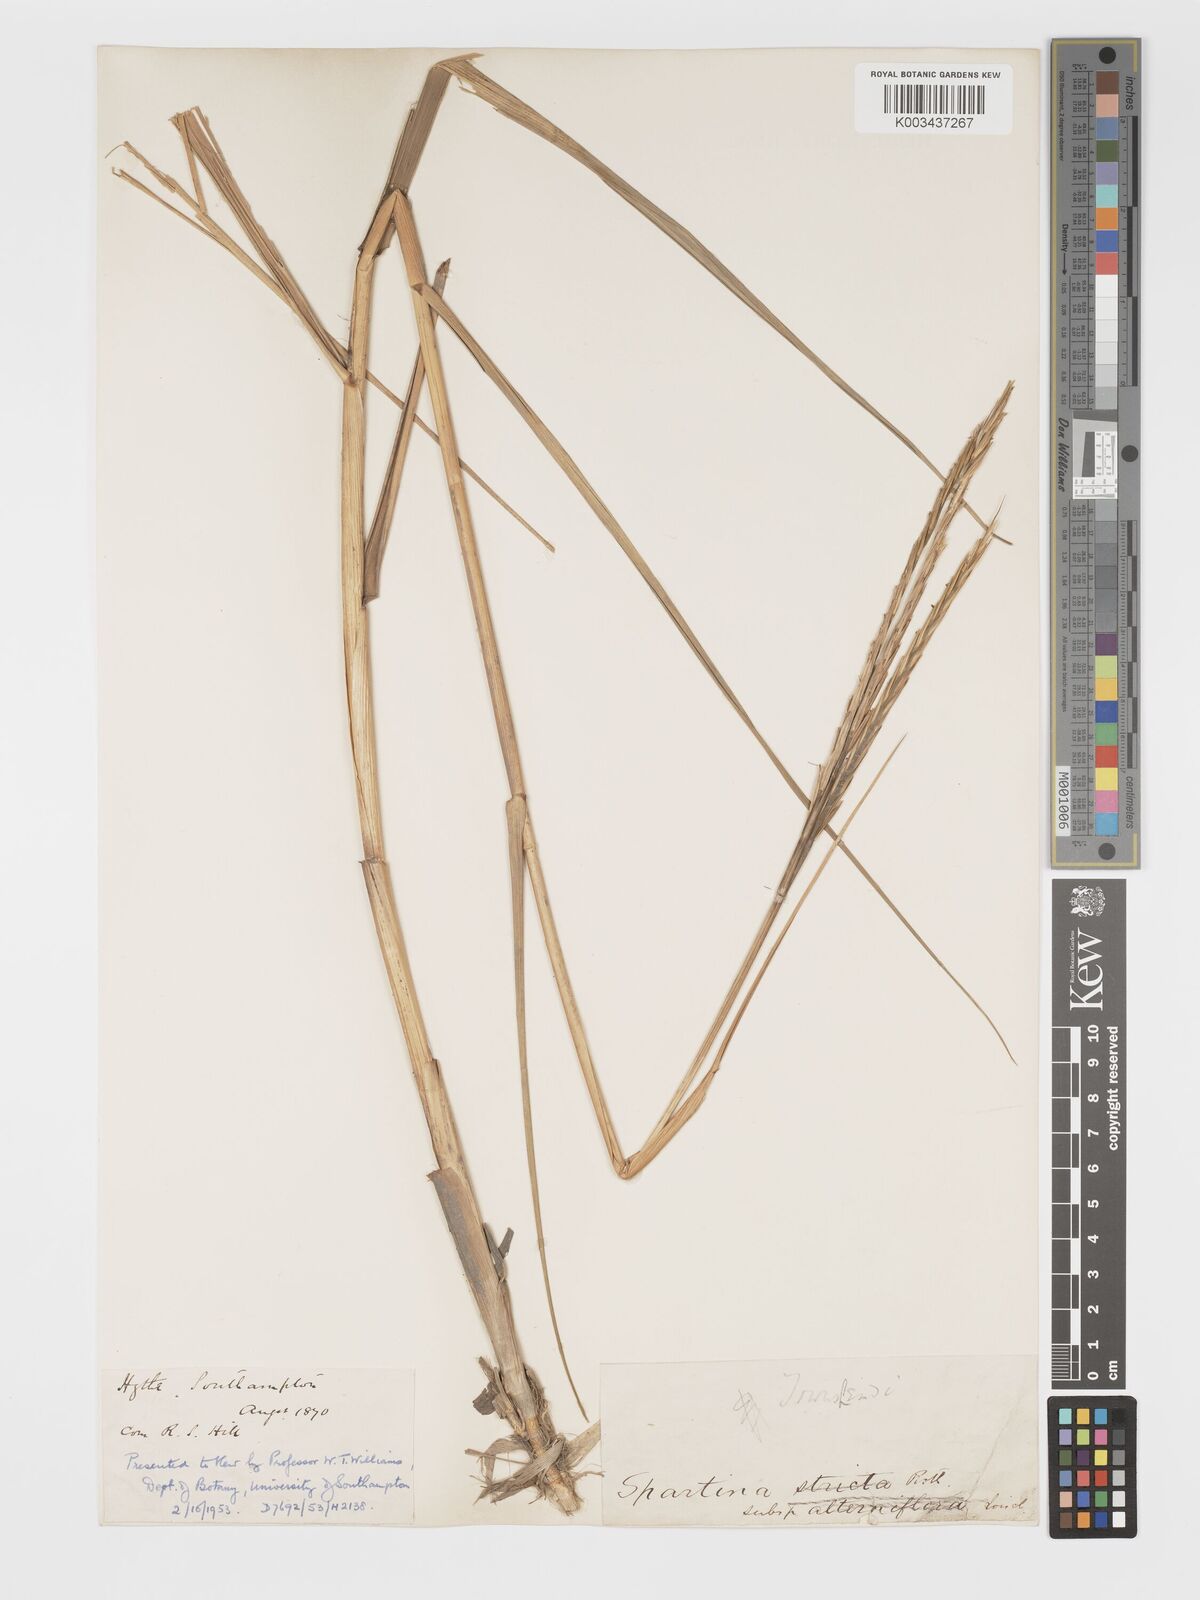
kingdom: Plantae
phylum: Tracheophyta
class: Liliopsida
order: Poales
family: Poaceae
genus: Sporobolus
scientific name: Sporobolus townsendii
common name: Townsend's cordgrass
